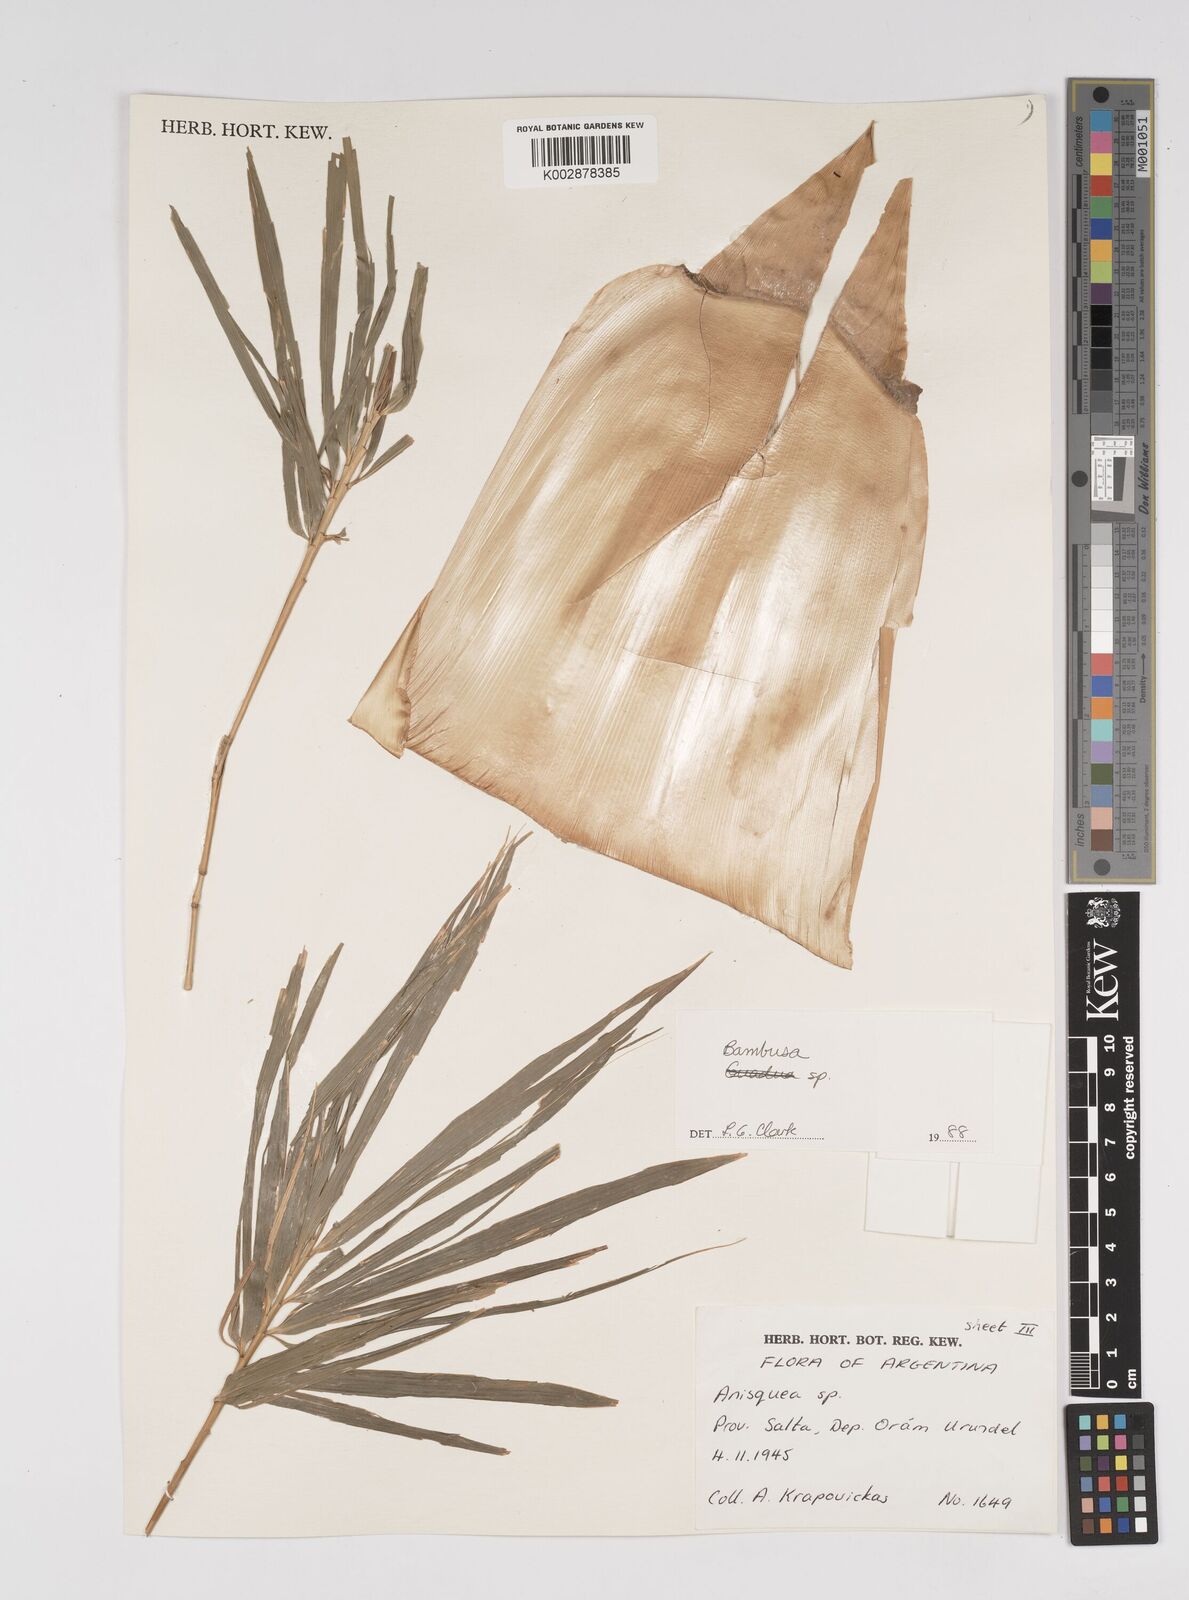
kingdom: Plantae
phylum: Tracheophyta
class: Liliopsida
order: Poales
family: Poaceae
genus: Bambusa
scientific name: Bambusa
